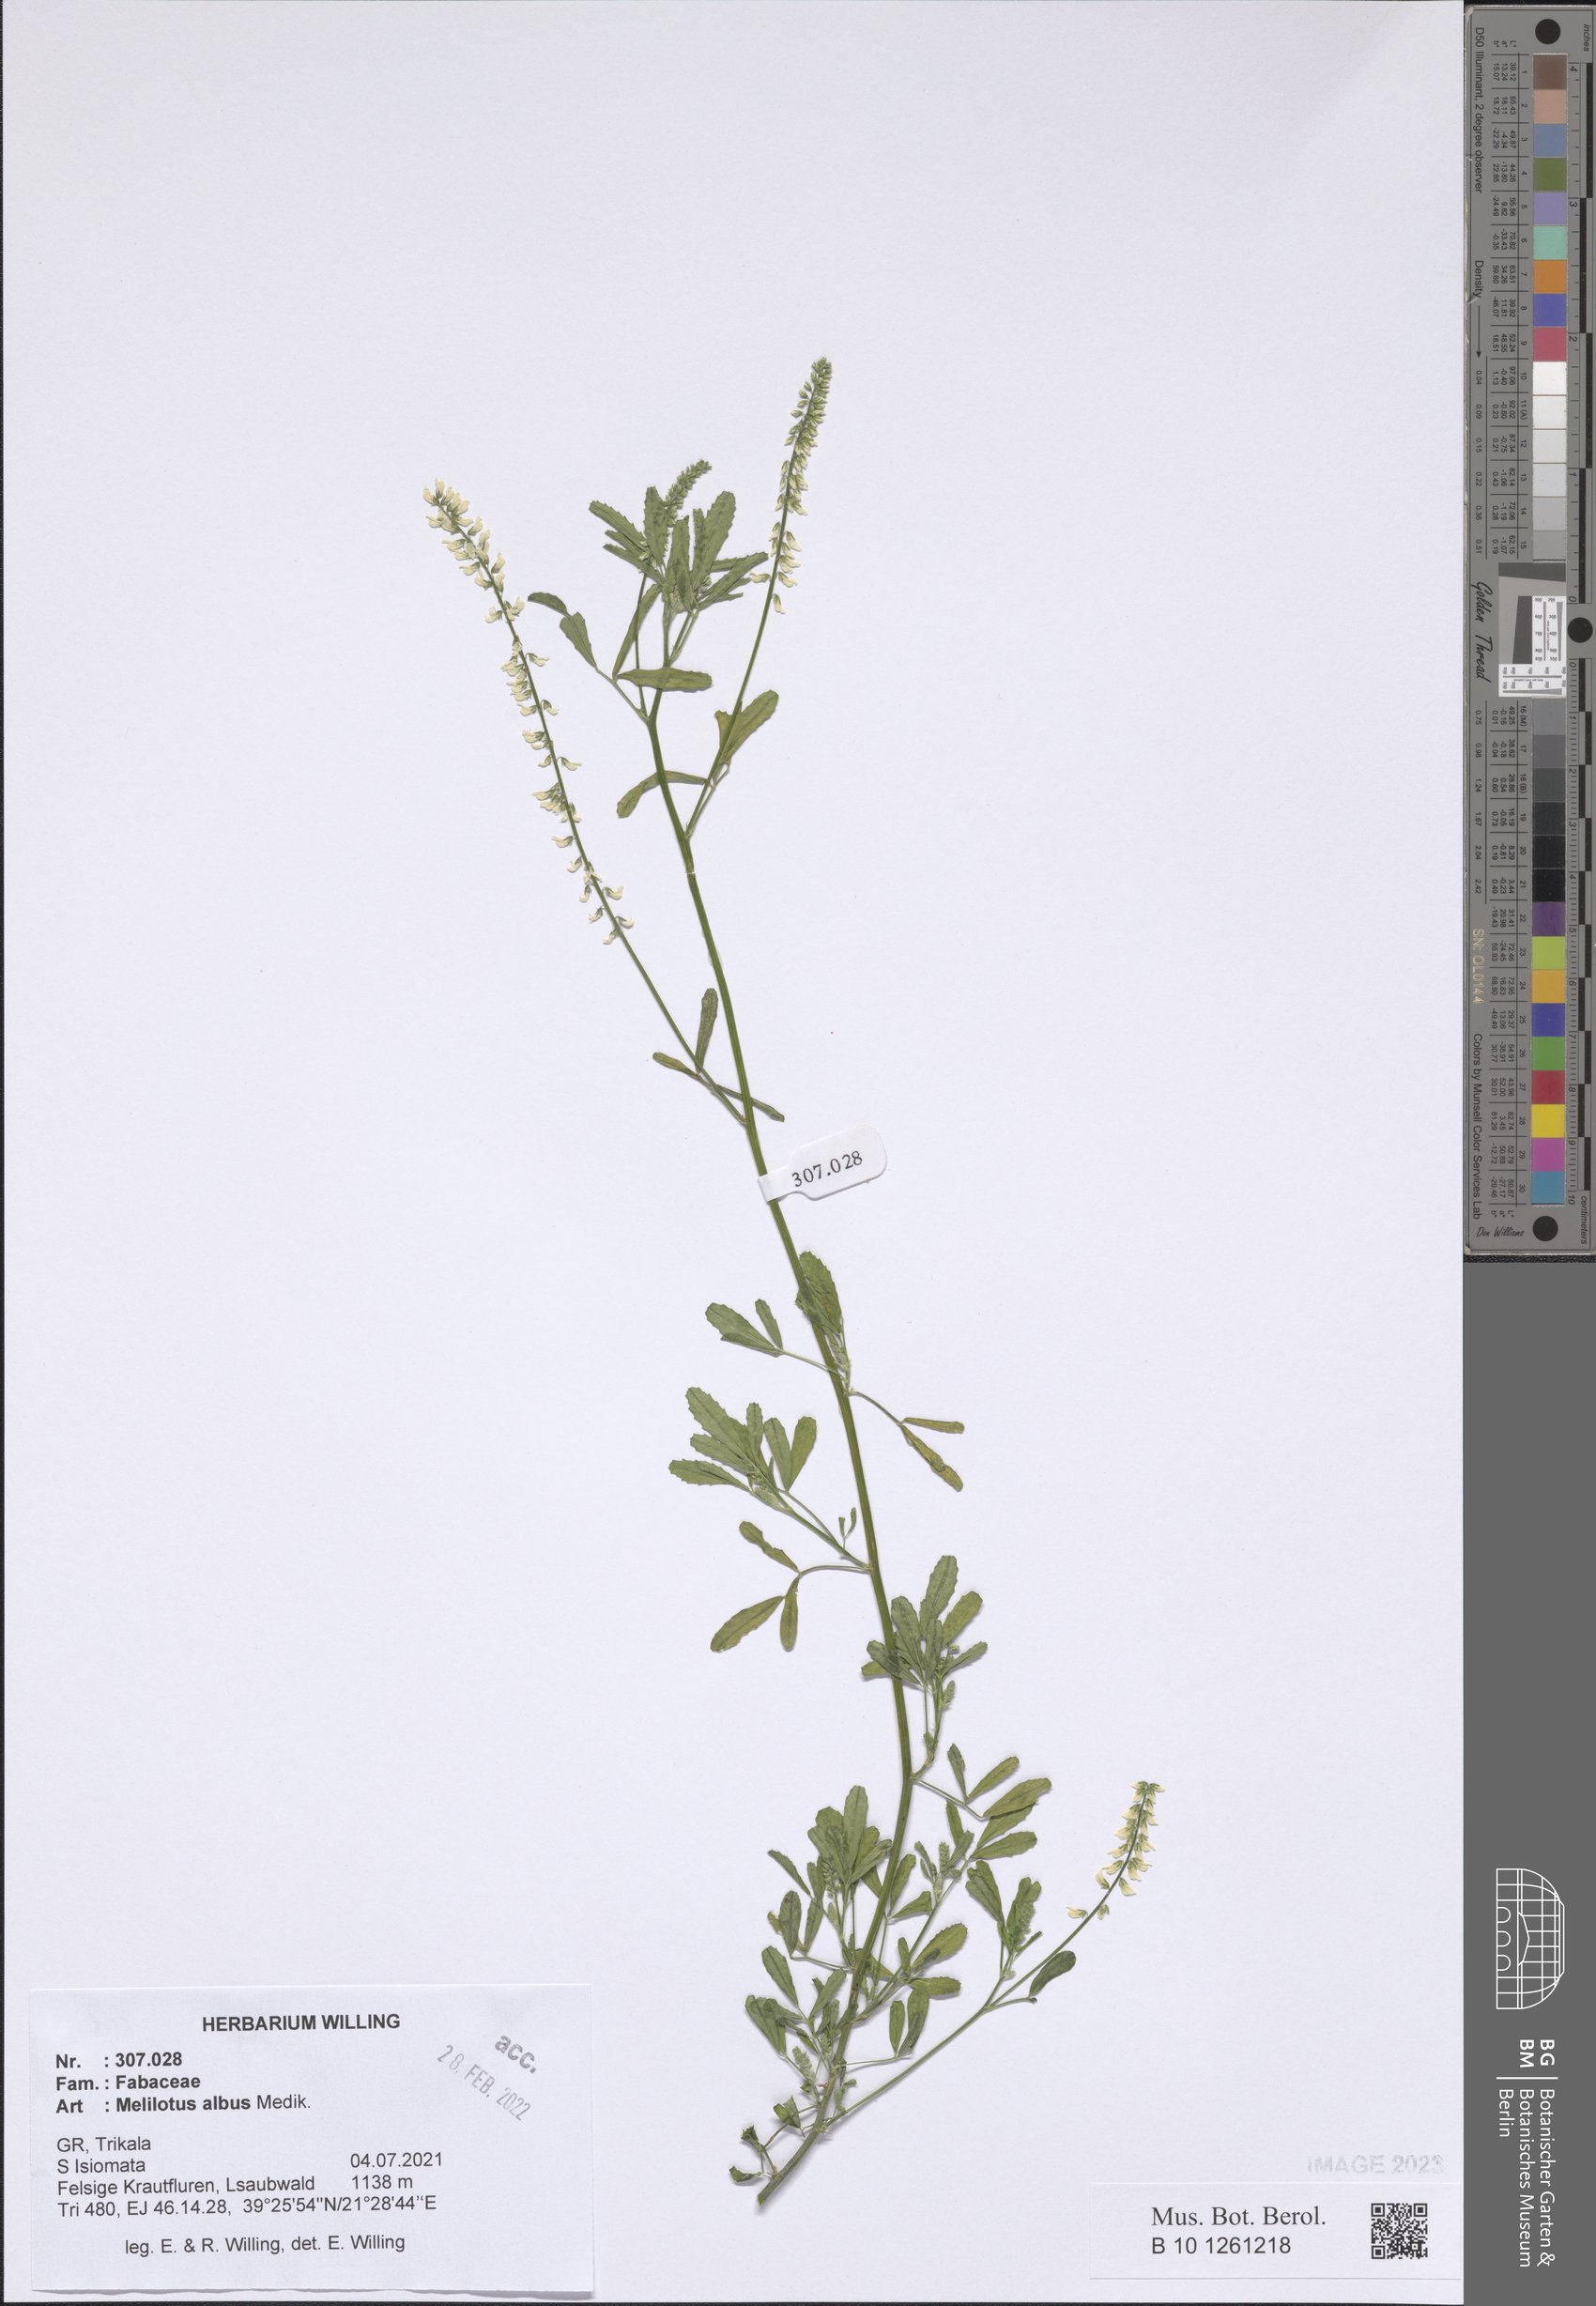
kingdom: Plantae
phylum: Tracheophyta
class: Magnoliopsida
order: Fabales
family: Fabaceae
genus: Melilotus
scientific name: Melilotus albus
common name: White melilot
